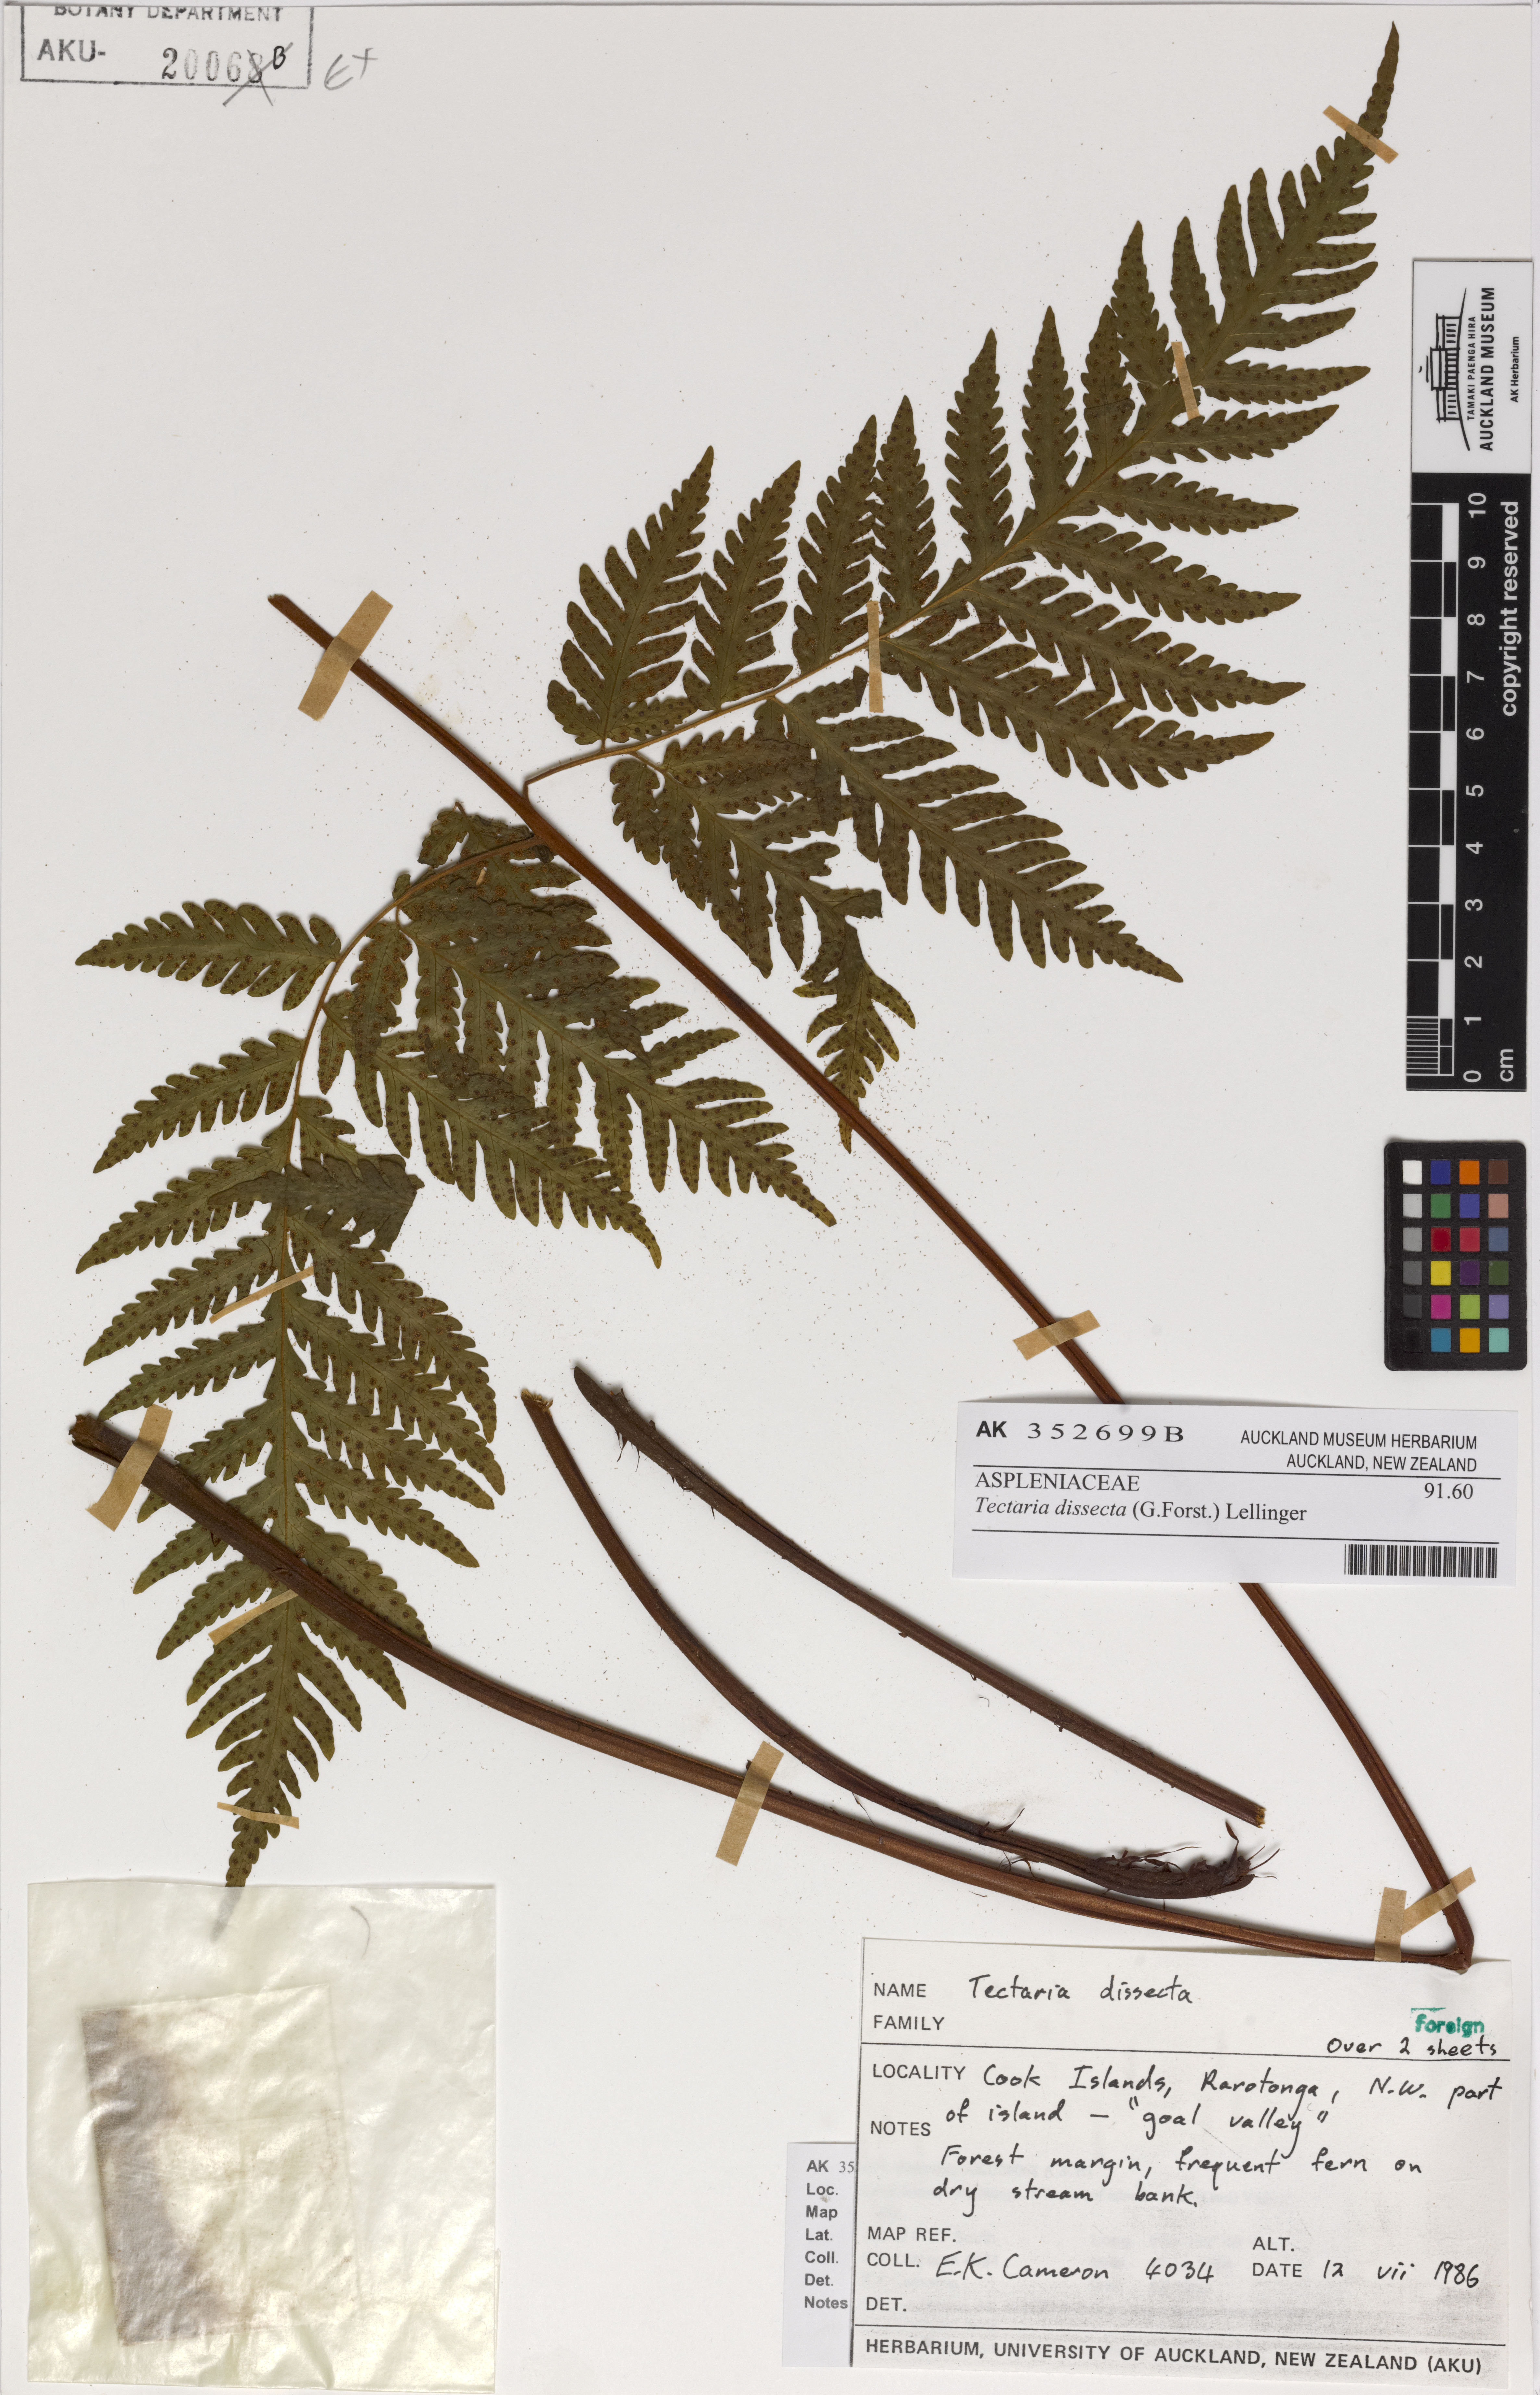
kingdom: Plantae
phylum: Tracheophyta
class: Polypodiopsida
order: Polypodiales
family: Tectariaceae
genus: Tectaria
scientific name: Tectaria dissecta
